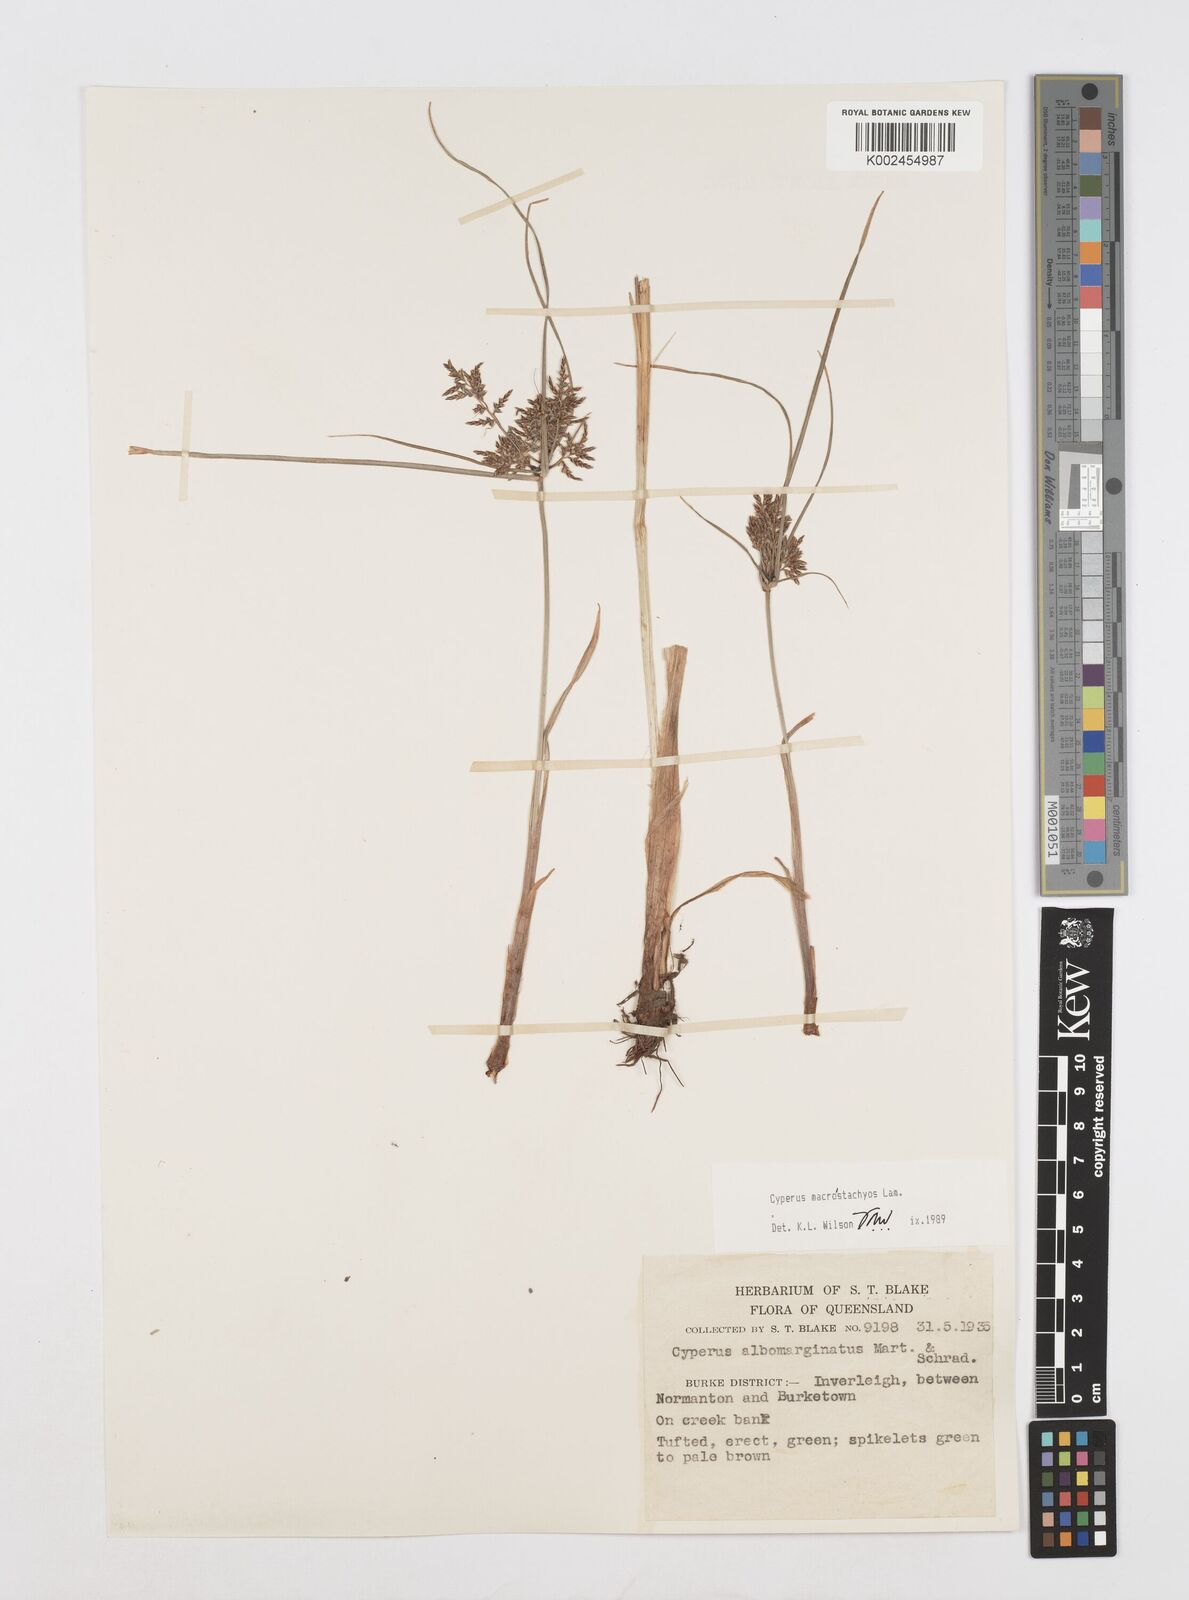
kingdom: Plantae
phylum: Tracheophyta
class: Liliopsida
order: Poales
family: Cyperaceae
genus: Cyperus
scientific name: Cyperus macrostachyos
